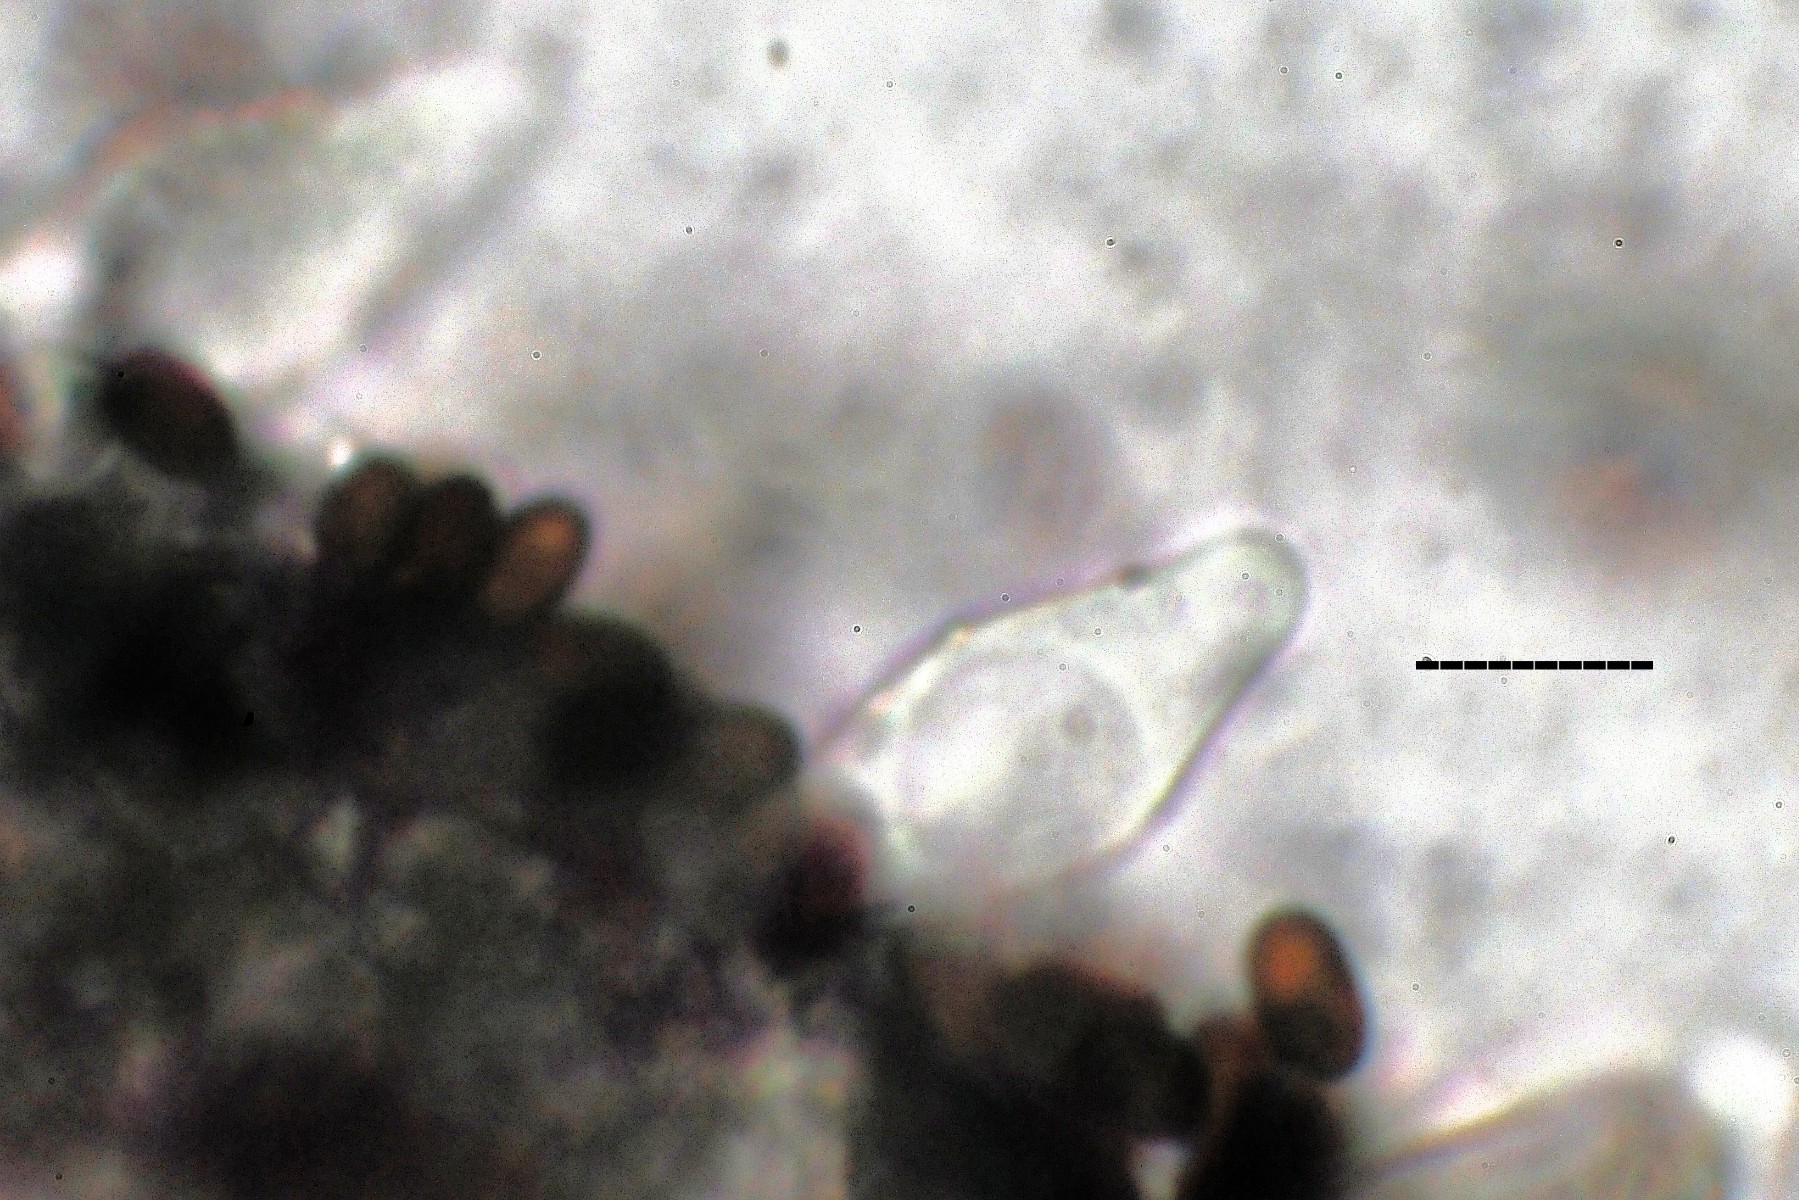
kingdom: Fungi
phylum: Basidiomycota
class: Agaricomycetes
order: Agaricales
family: Psathyrellaceae
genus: Psathyrella
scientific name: Psathyrella
